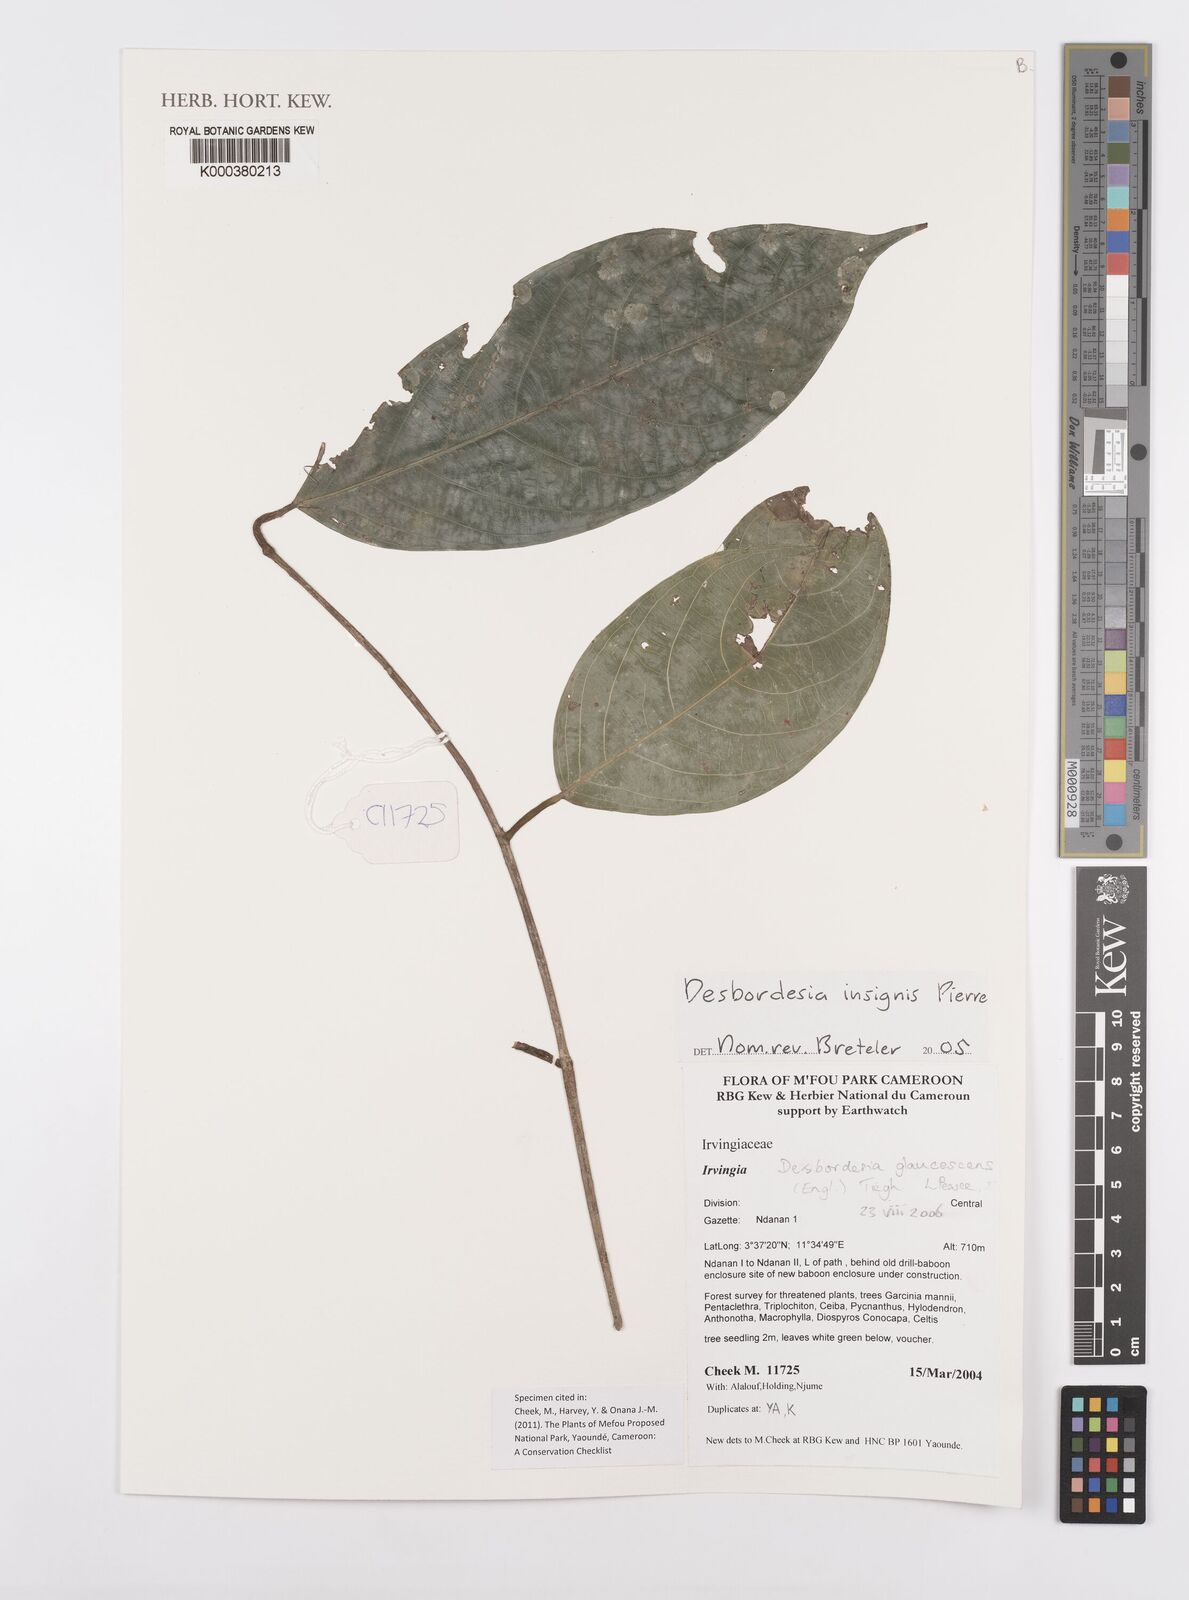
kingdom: Plantae
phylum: Tracheophyta
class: Magnoliopsida
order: Malpighiales
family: Irvingiaceae
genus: Desbordesia
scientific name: Desbordesia glaucescens
